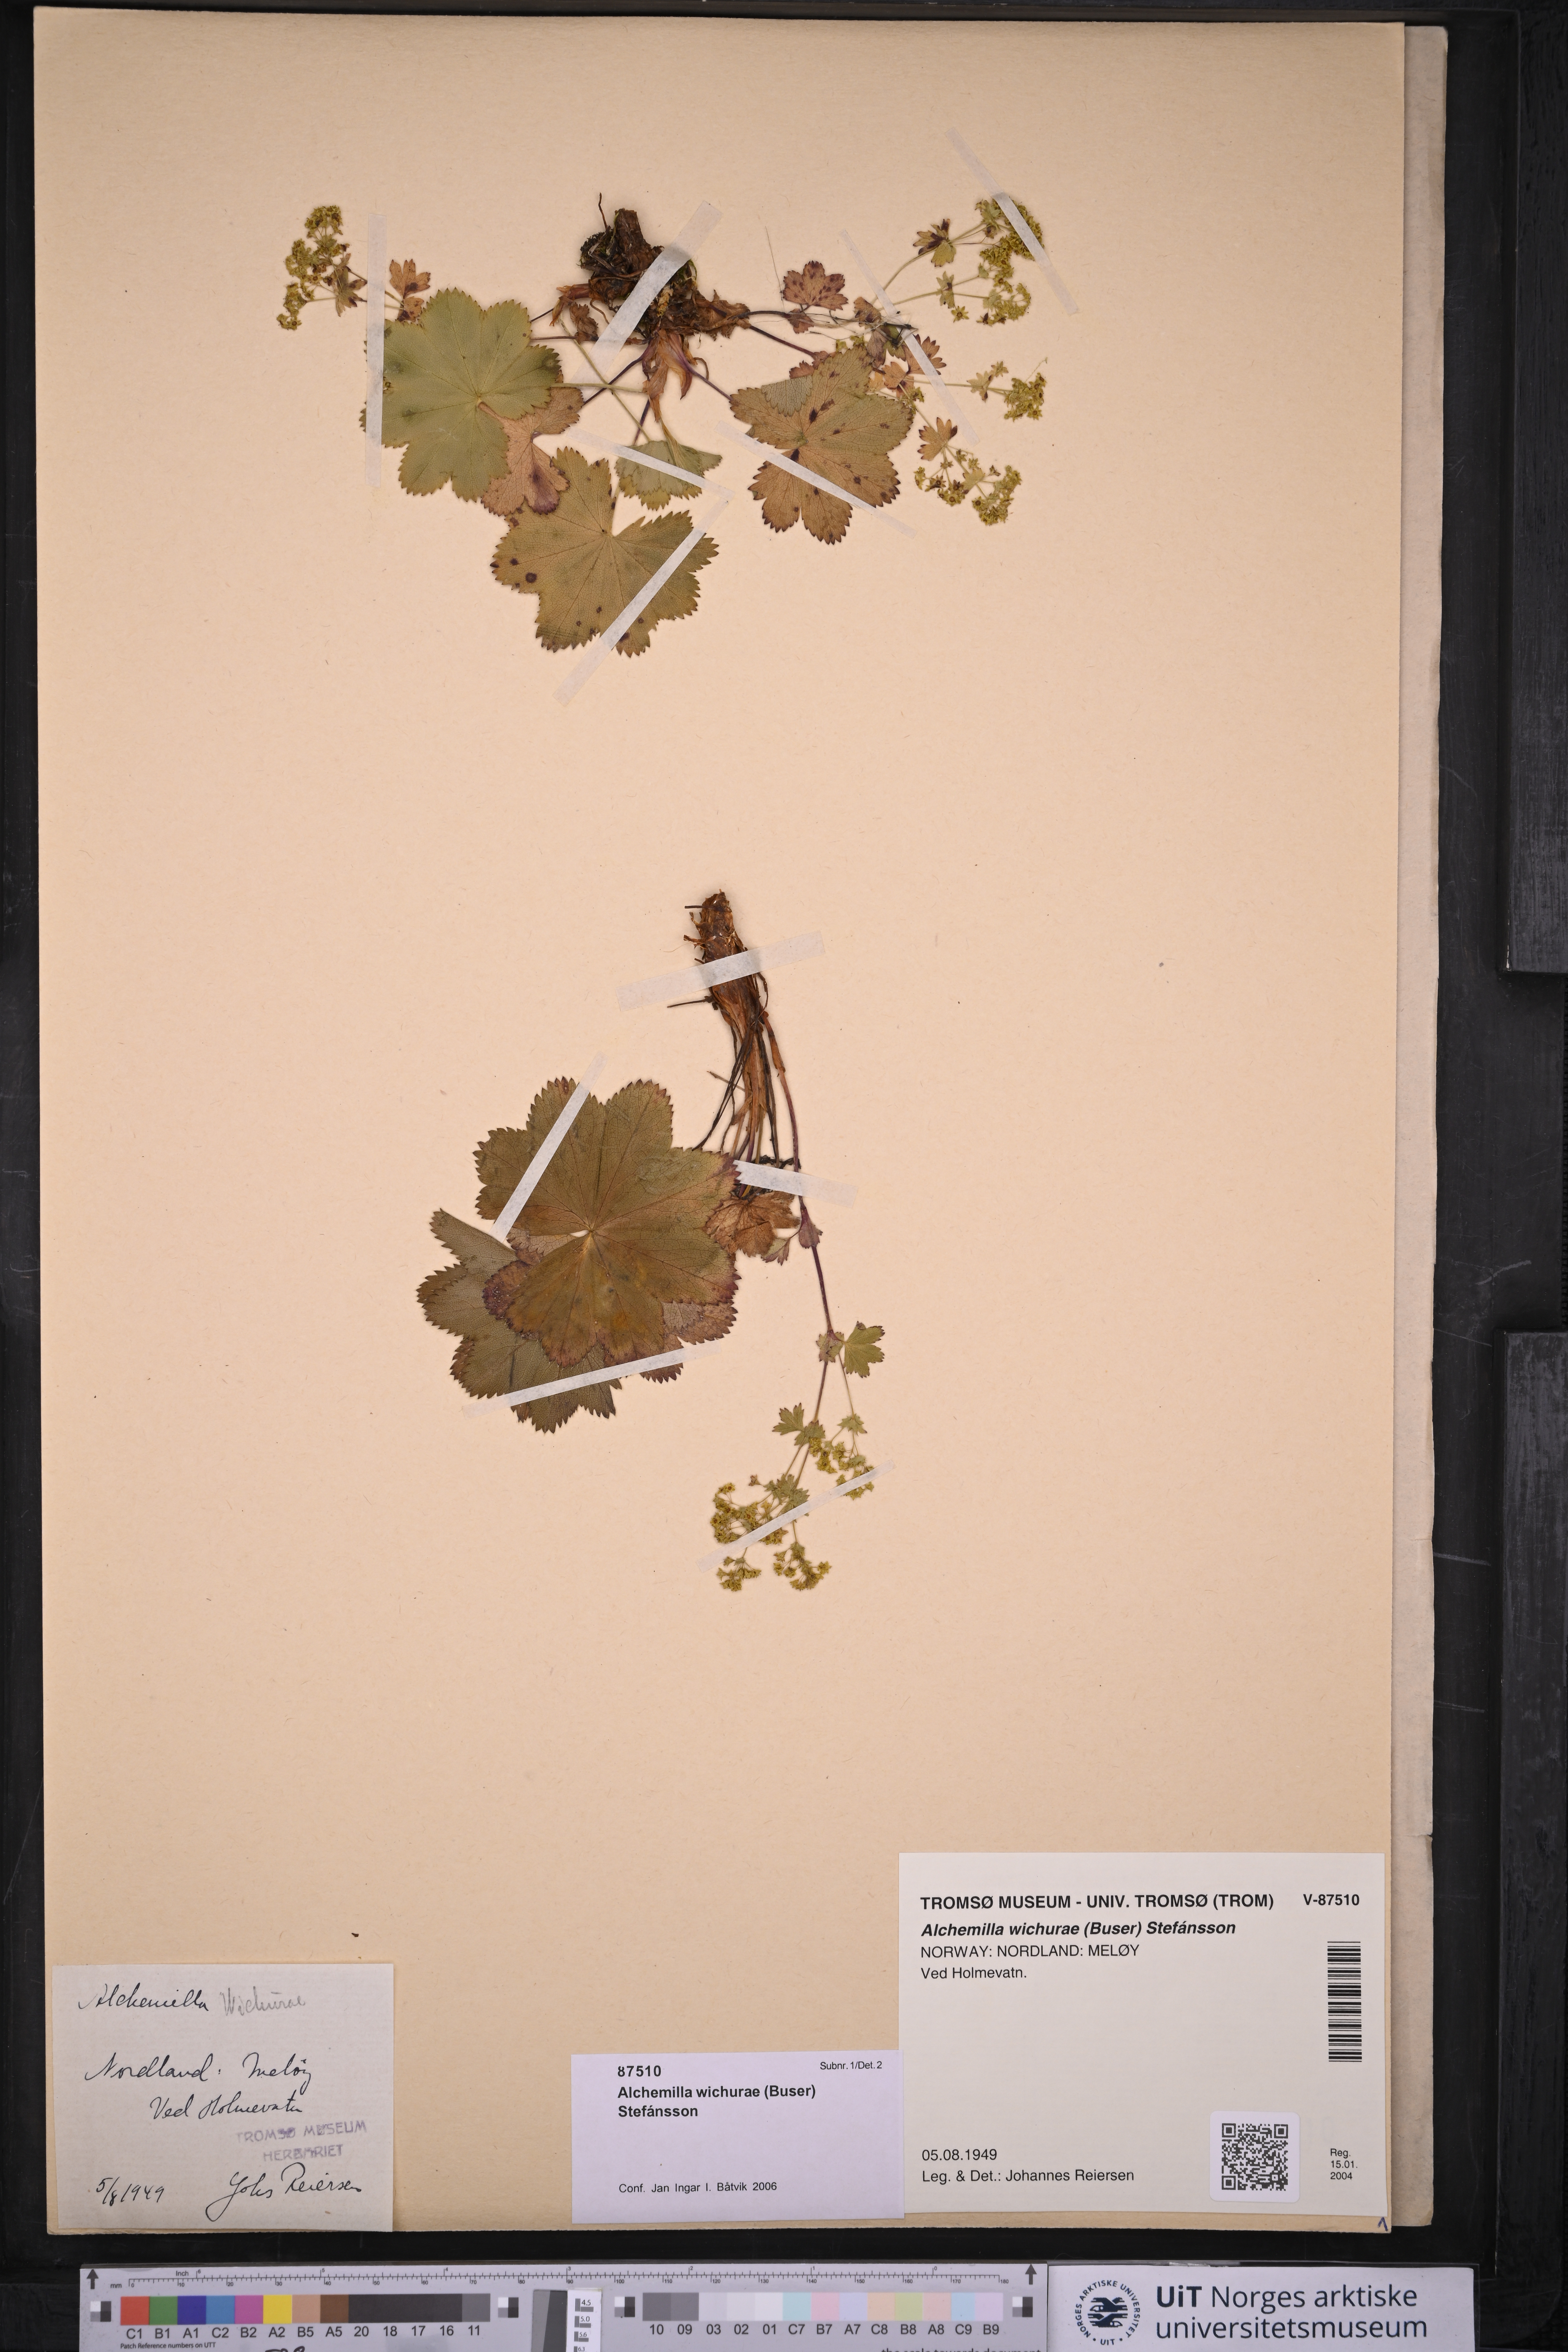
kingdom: Plantae
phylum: Tracheophyta
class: Magnoliopsida
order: Rosales
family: Rosaceae
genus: Alchemilla
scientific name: Alchemilla wichurae
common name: Rock lady's mantle
